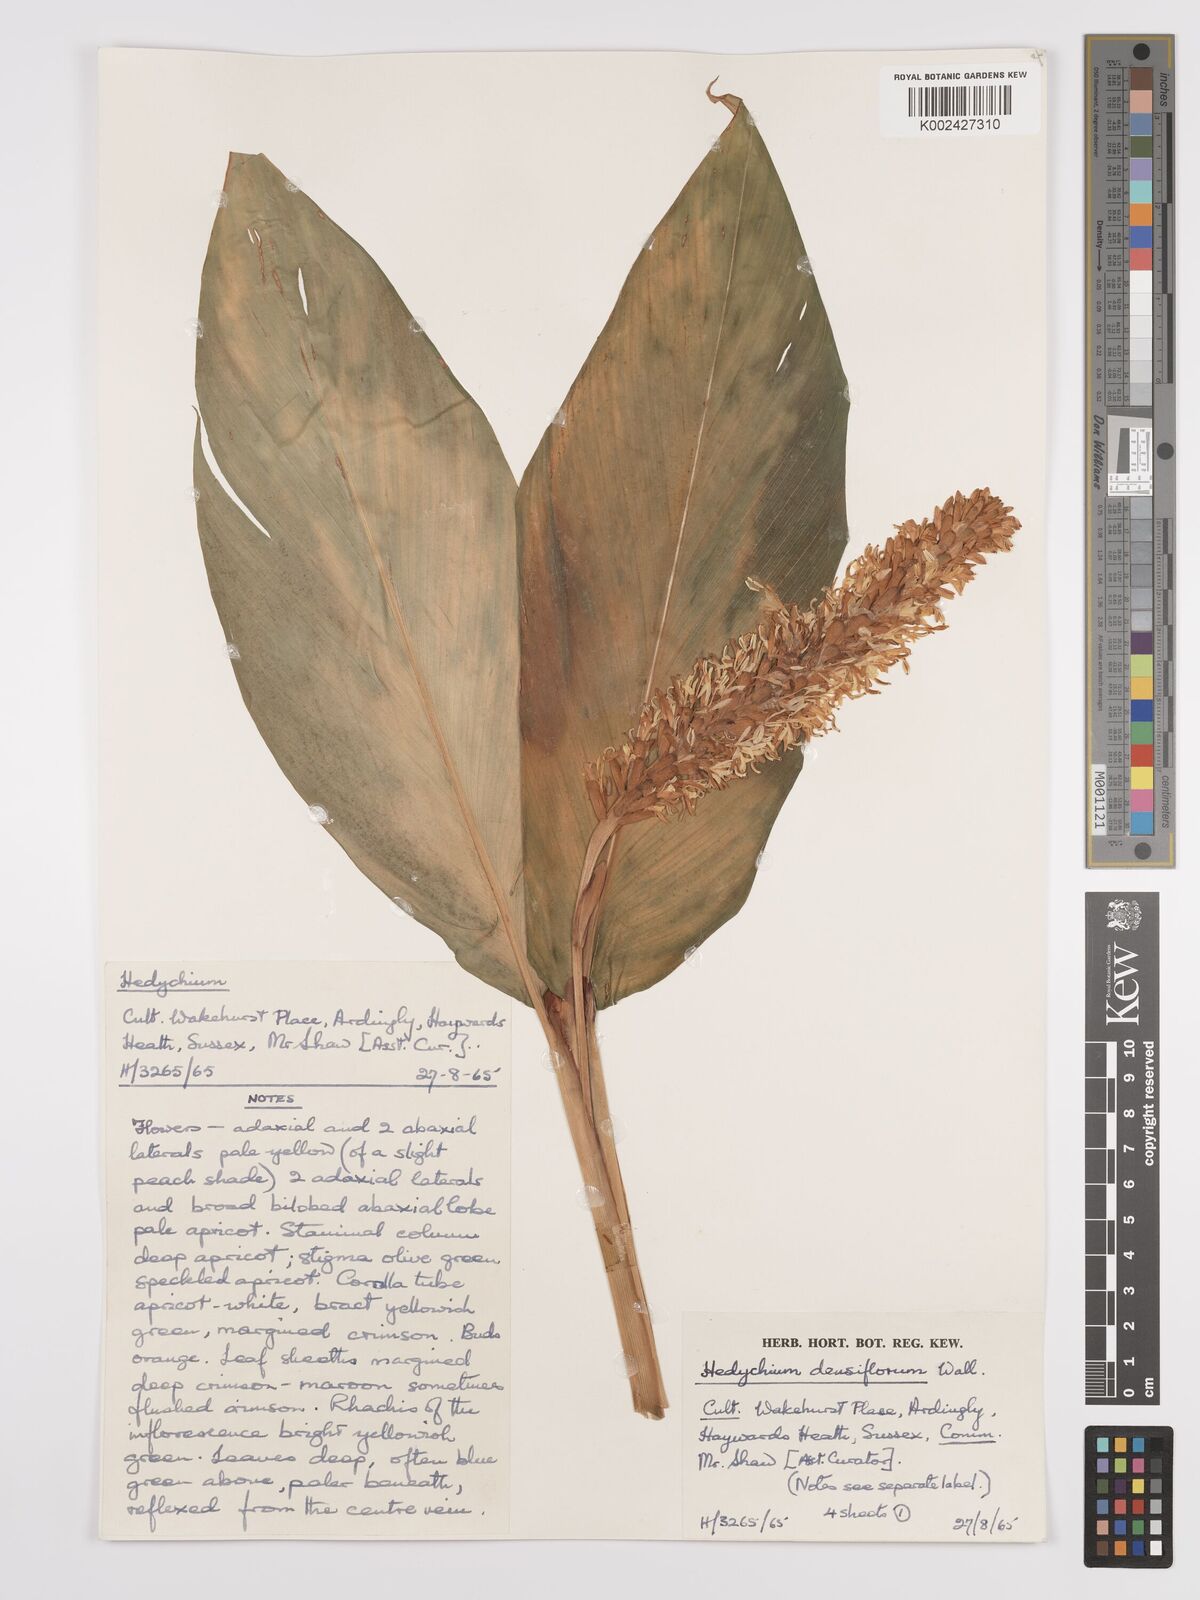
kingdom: Plantae
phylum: Tracheophyta
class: Liliopsida
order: Zingiberales
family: Zingiberaceae
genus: Hedychium
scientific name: Hedychium densiflorum
